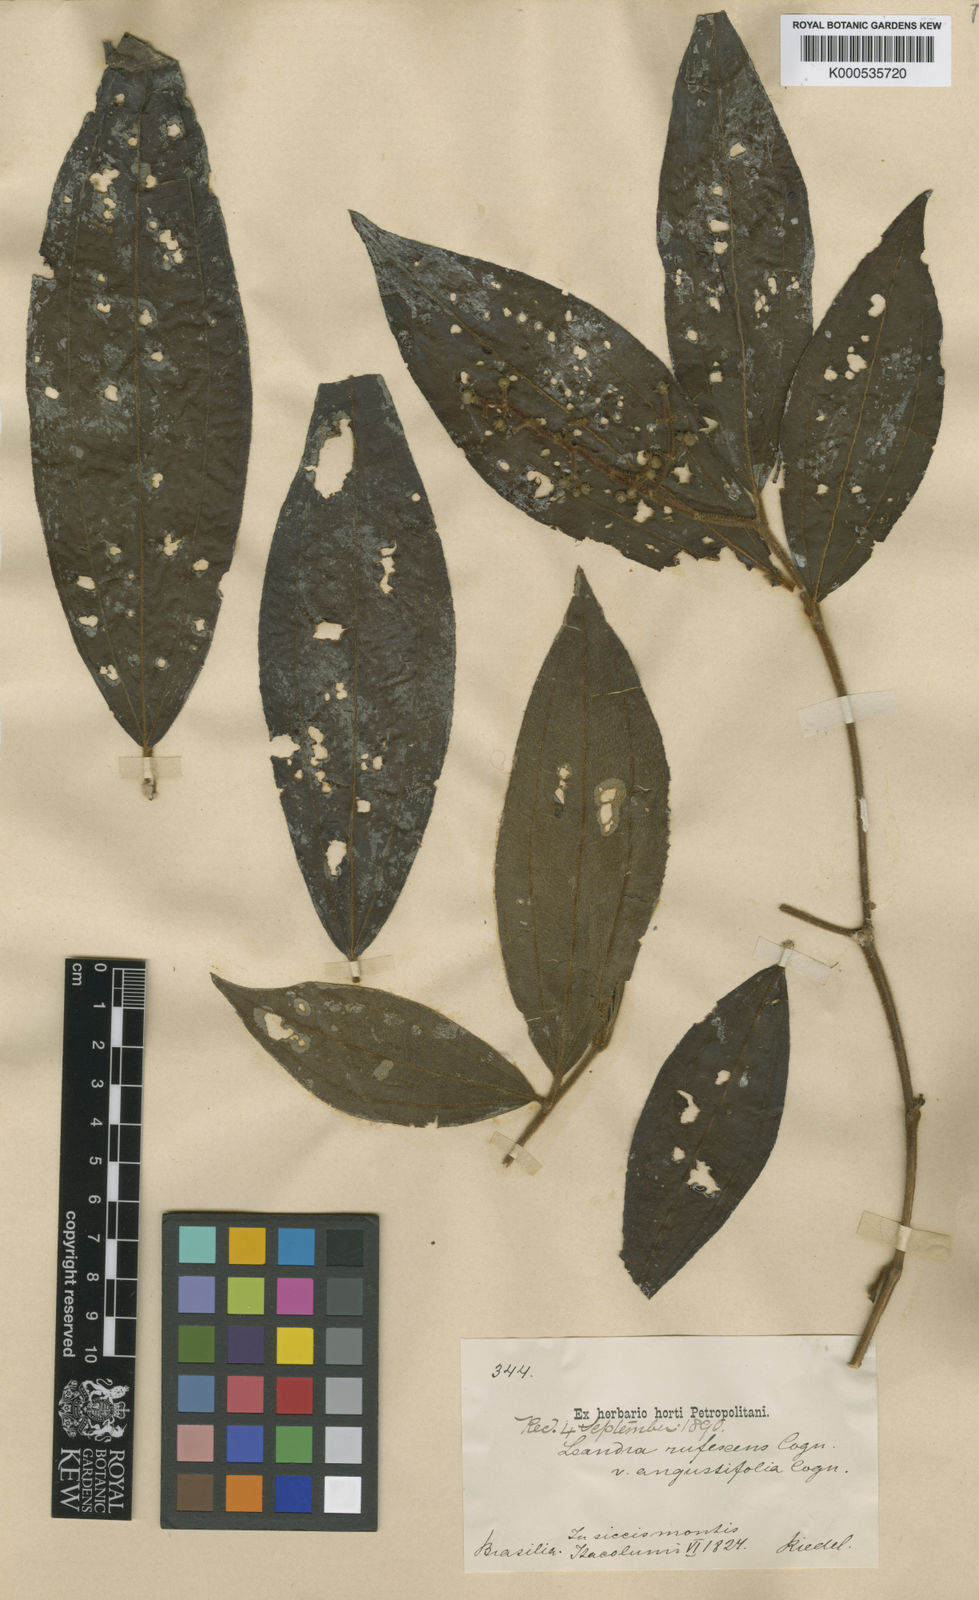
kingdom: Plantae
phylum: Tracheophyta
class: Magnoliopsida
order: Myrtales
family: Melastomataceae
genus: Miconia
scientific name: Miconia asperiuscula
